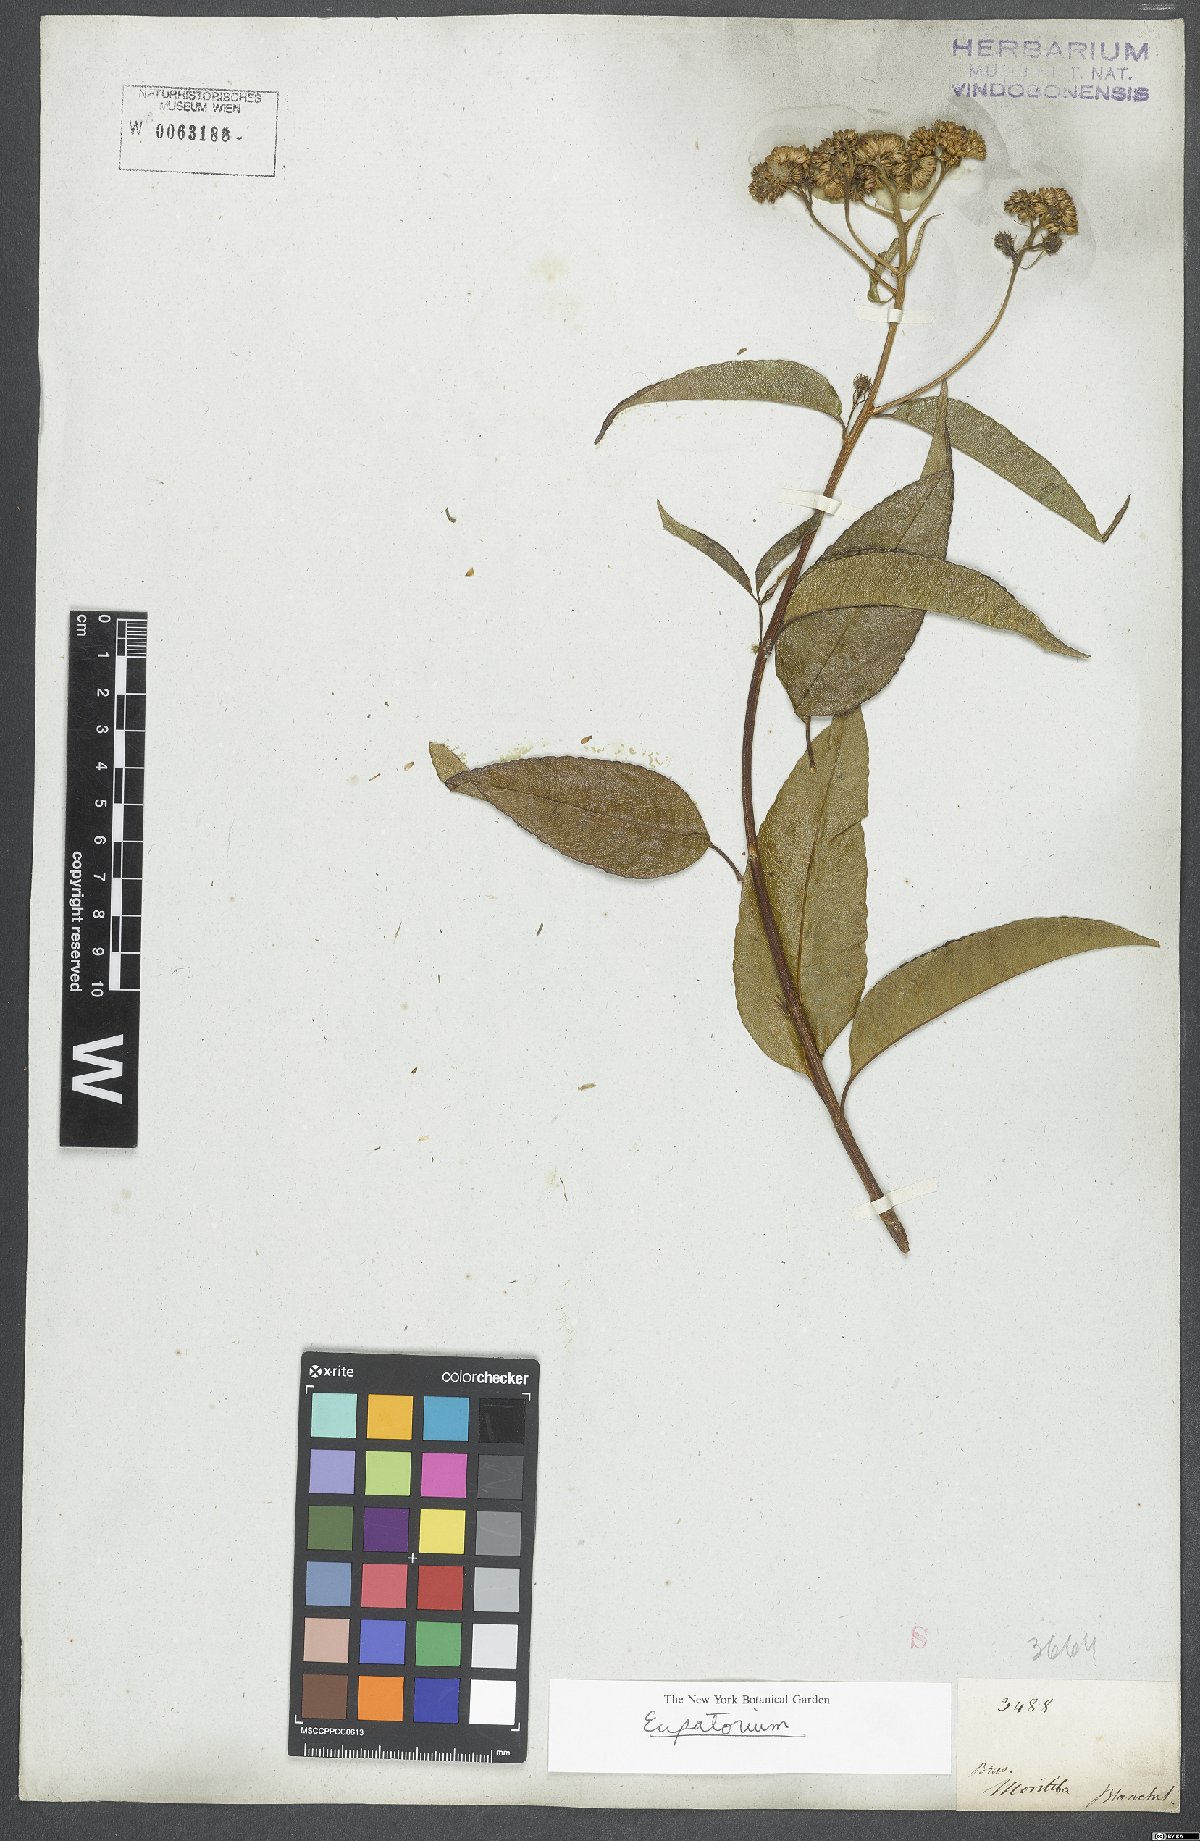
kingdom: Plantae
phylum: Tracheophyta
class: Magnoliopsida
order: Asterales
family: Asteraceae
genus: Eupatorium
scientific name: Eupatorium
